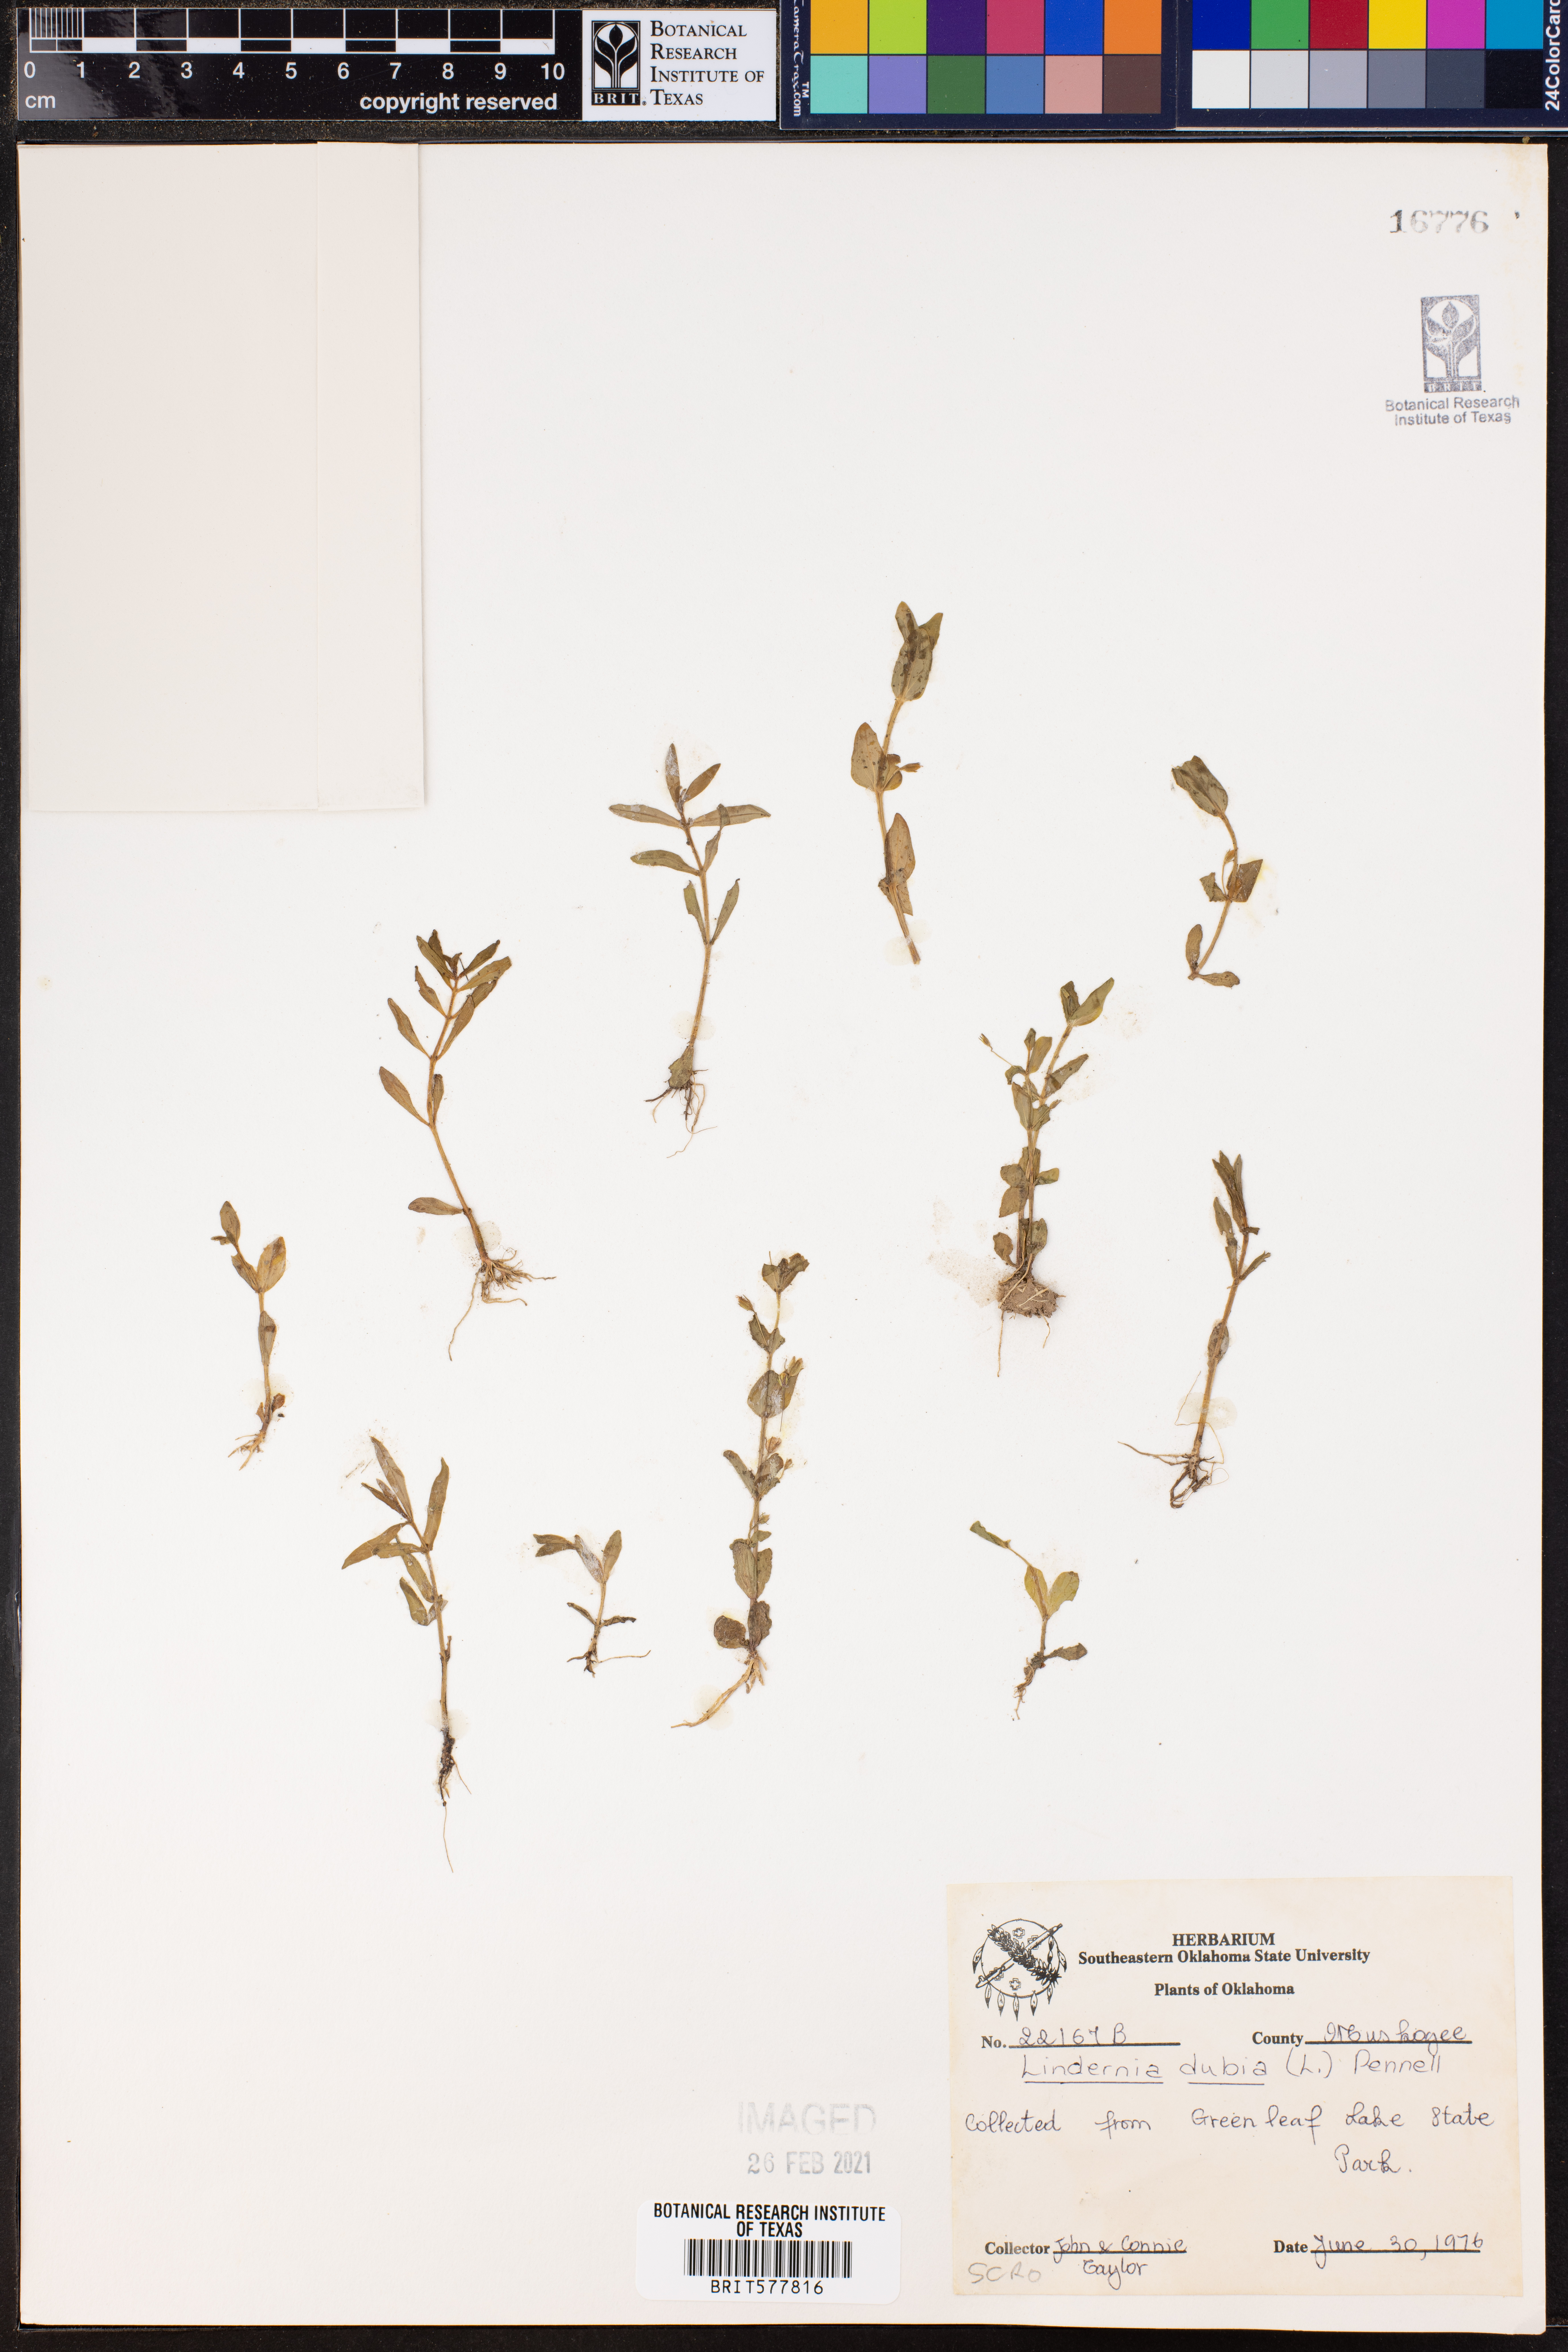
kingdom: Plantae
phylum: Tracheophyta
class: Magnoliopsida
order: Lamiales
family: Linderniaceae
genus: Lindernia
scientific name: Lindernia dubia
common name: Annual false pimpernel
